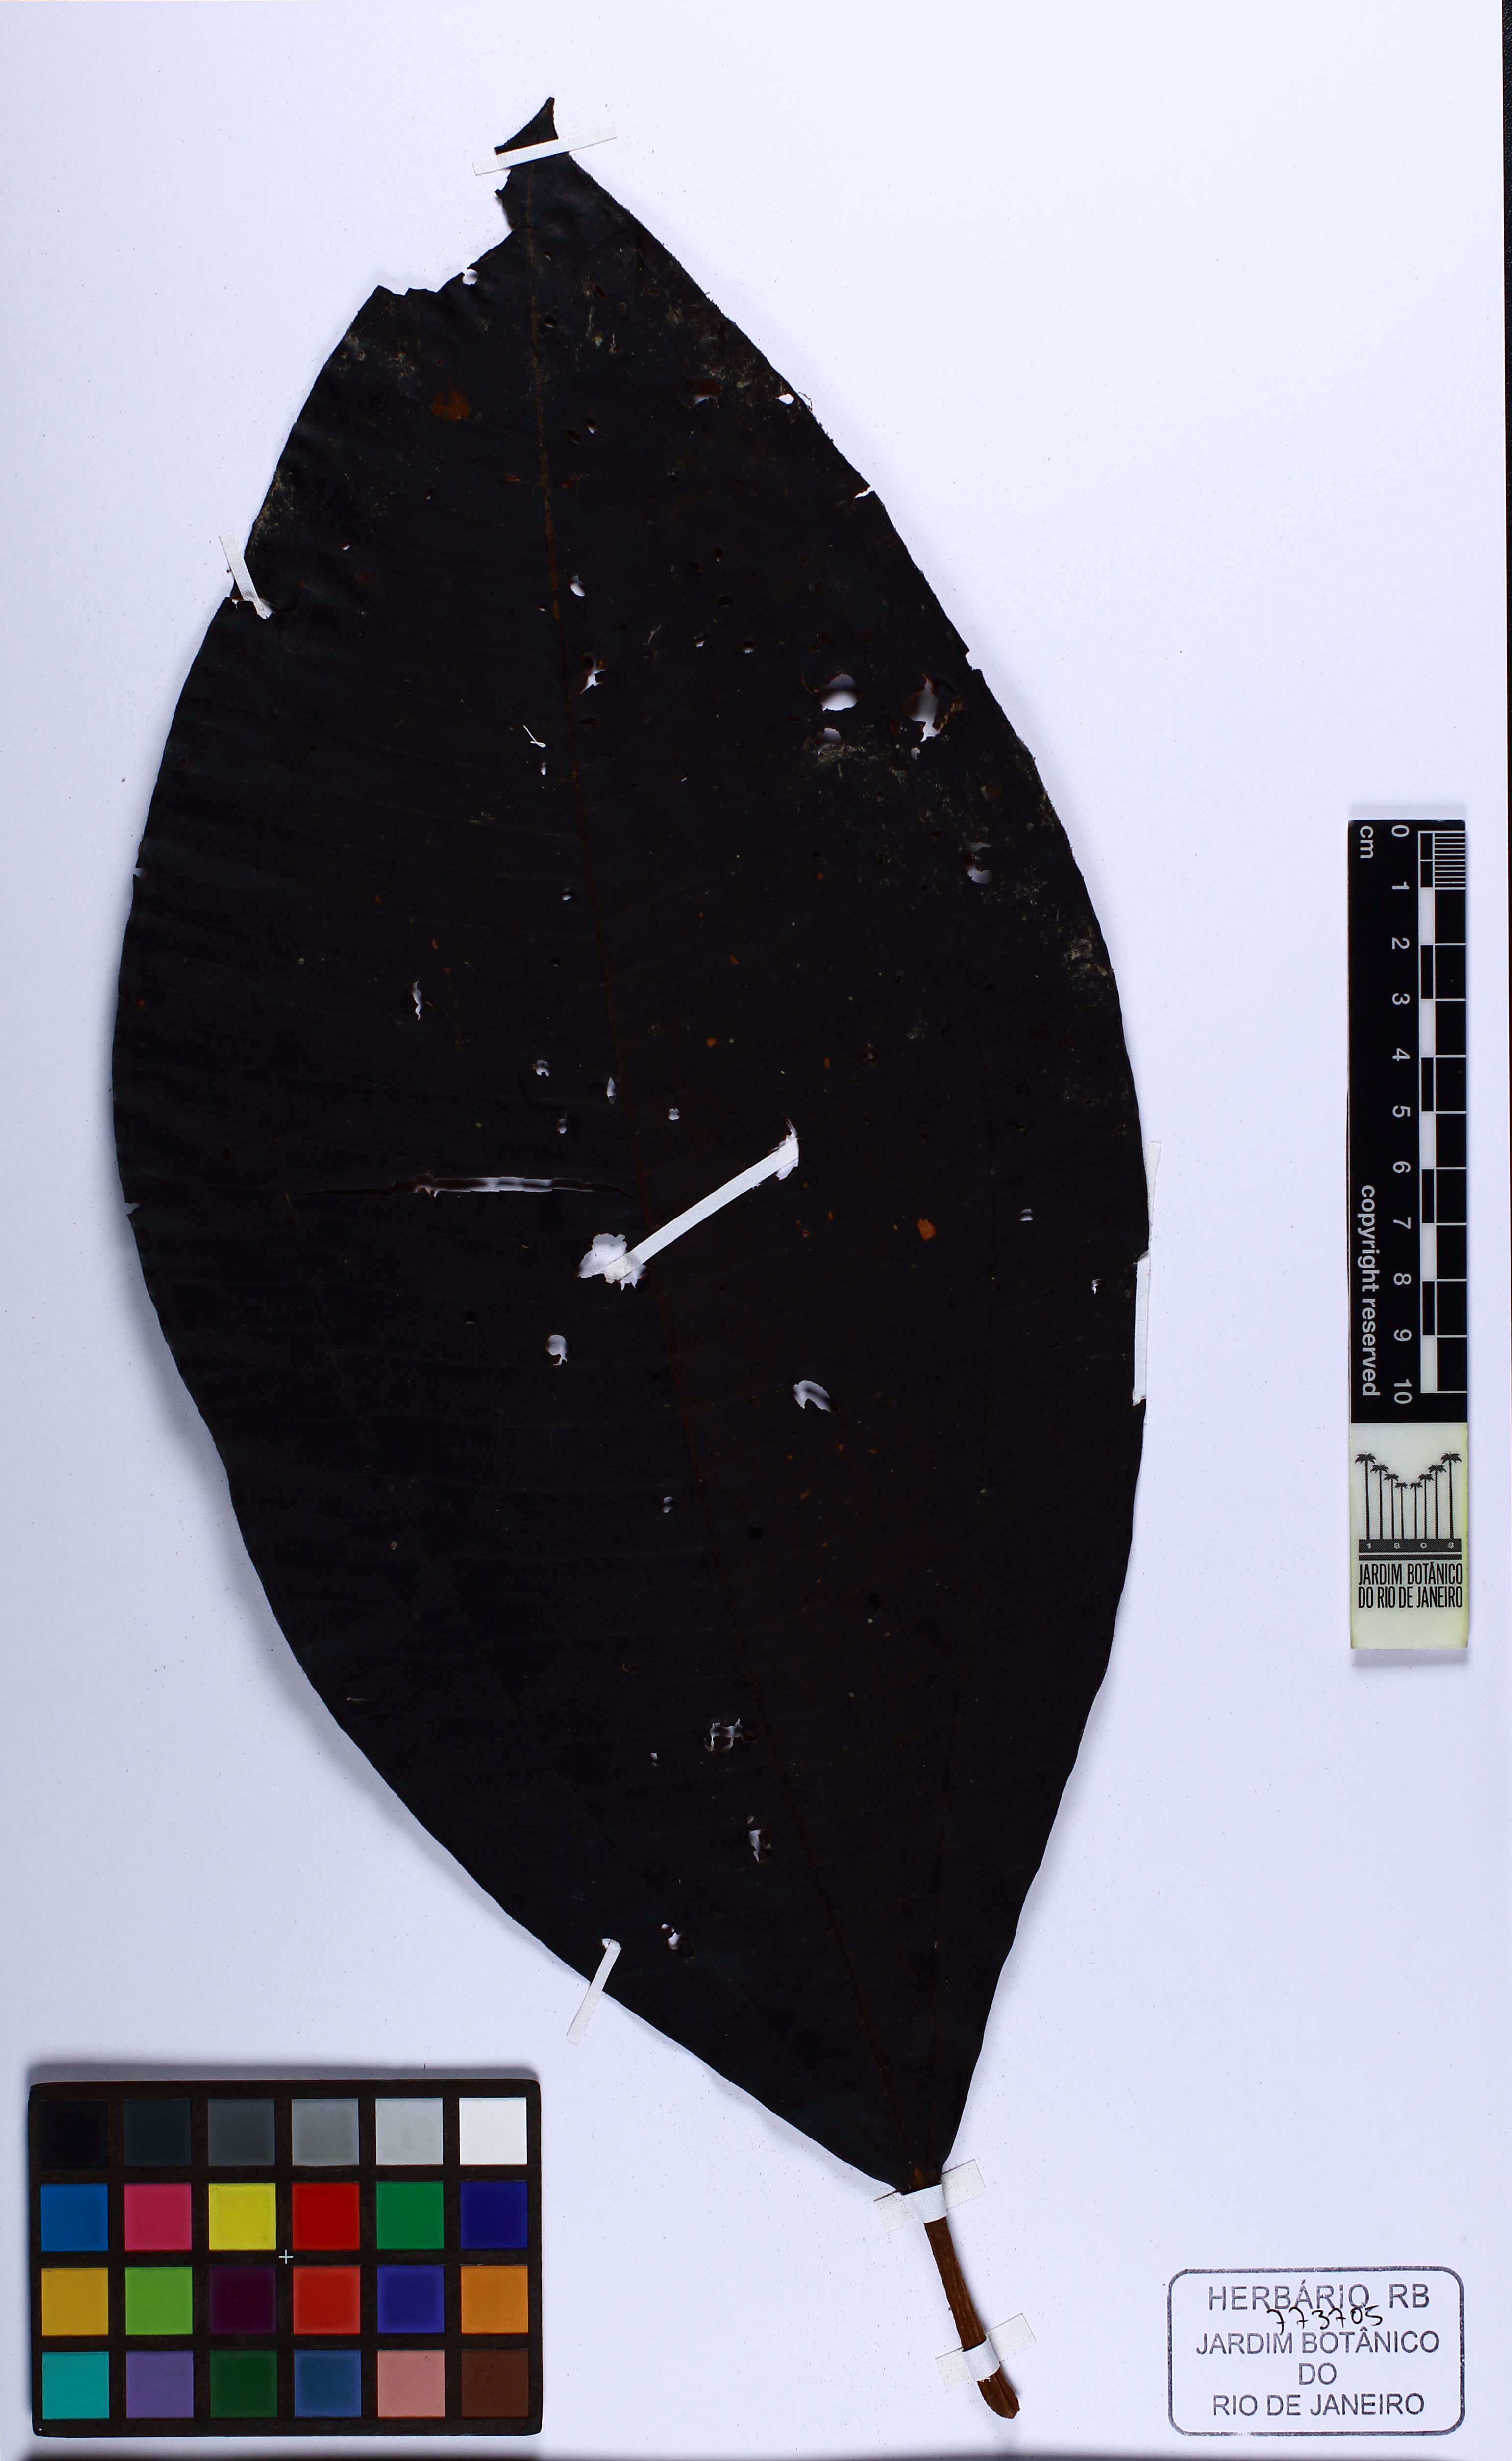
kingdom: Plantae
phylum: Tracheophyta
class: Magnoliopsida
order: Myrtales
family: Melastomataceae
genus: Miconia
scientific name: Miconia rondoniensis
